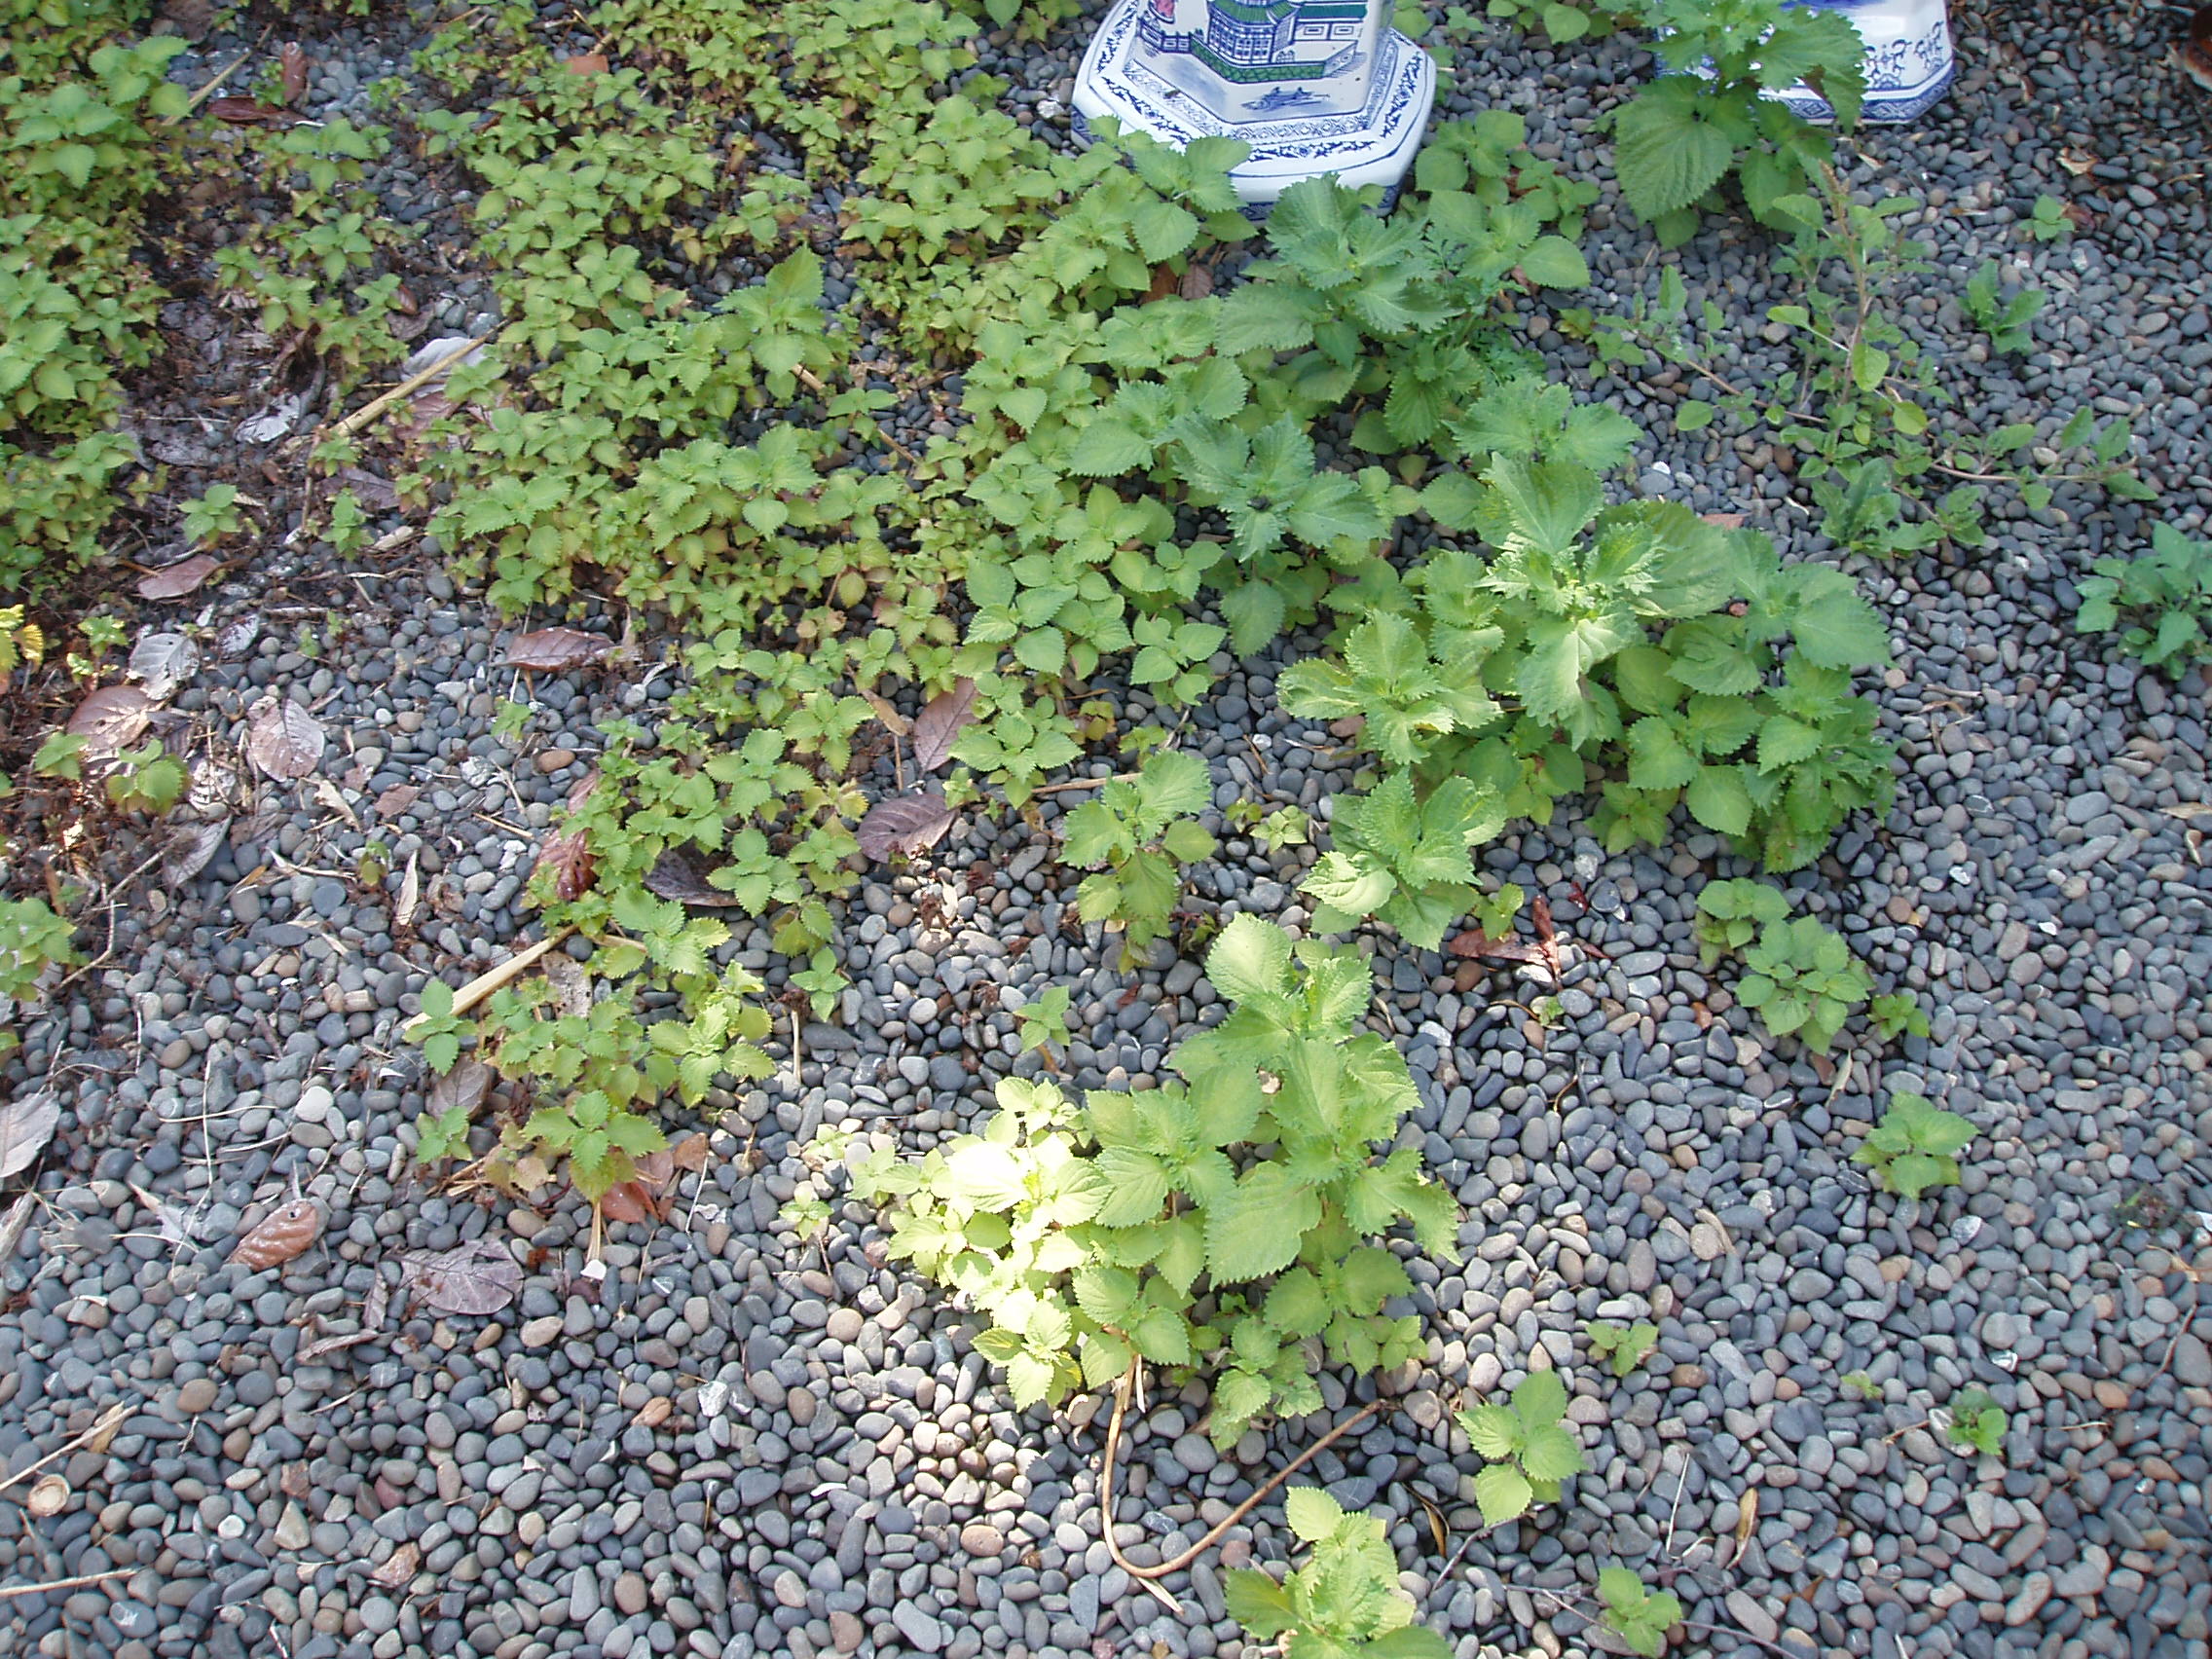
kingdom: Plantae
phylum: Tracheophyta
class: Magnoliopsida
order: Lamiales
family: Lamiaceae
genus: Perilla
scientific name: Perilla frutescens
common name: Perilla
